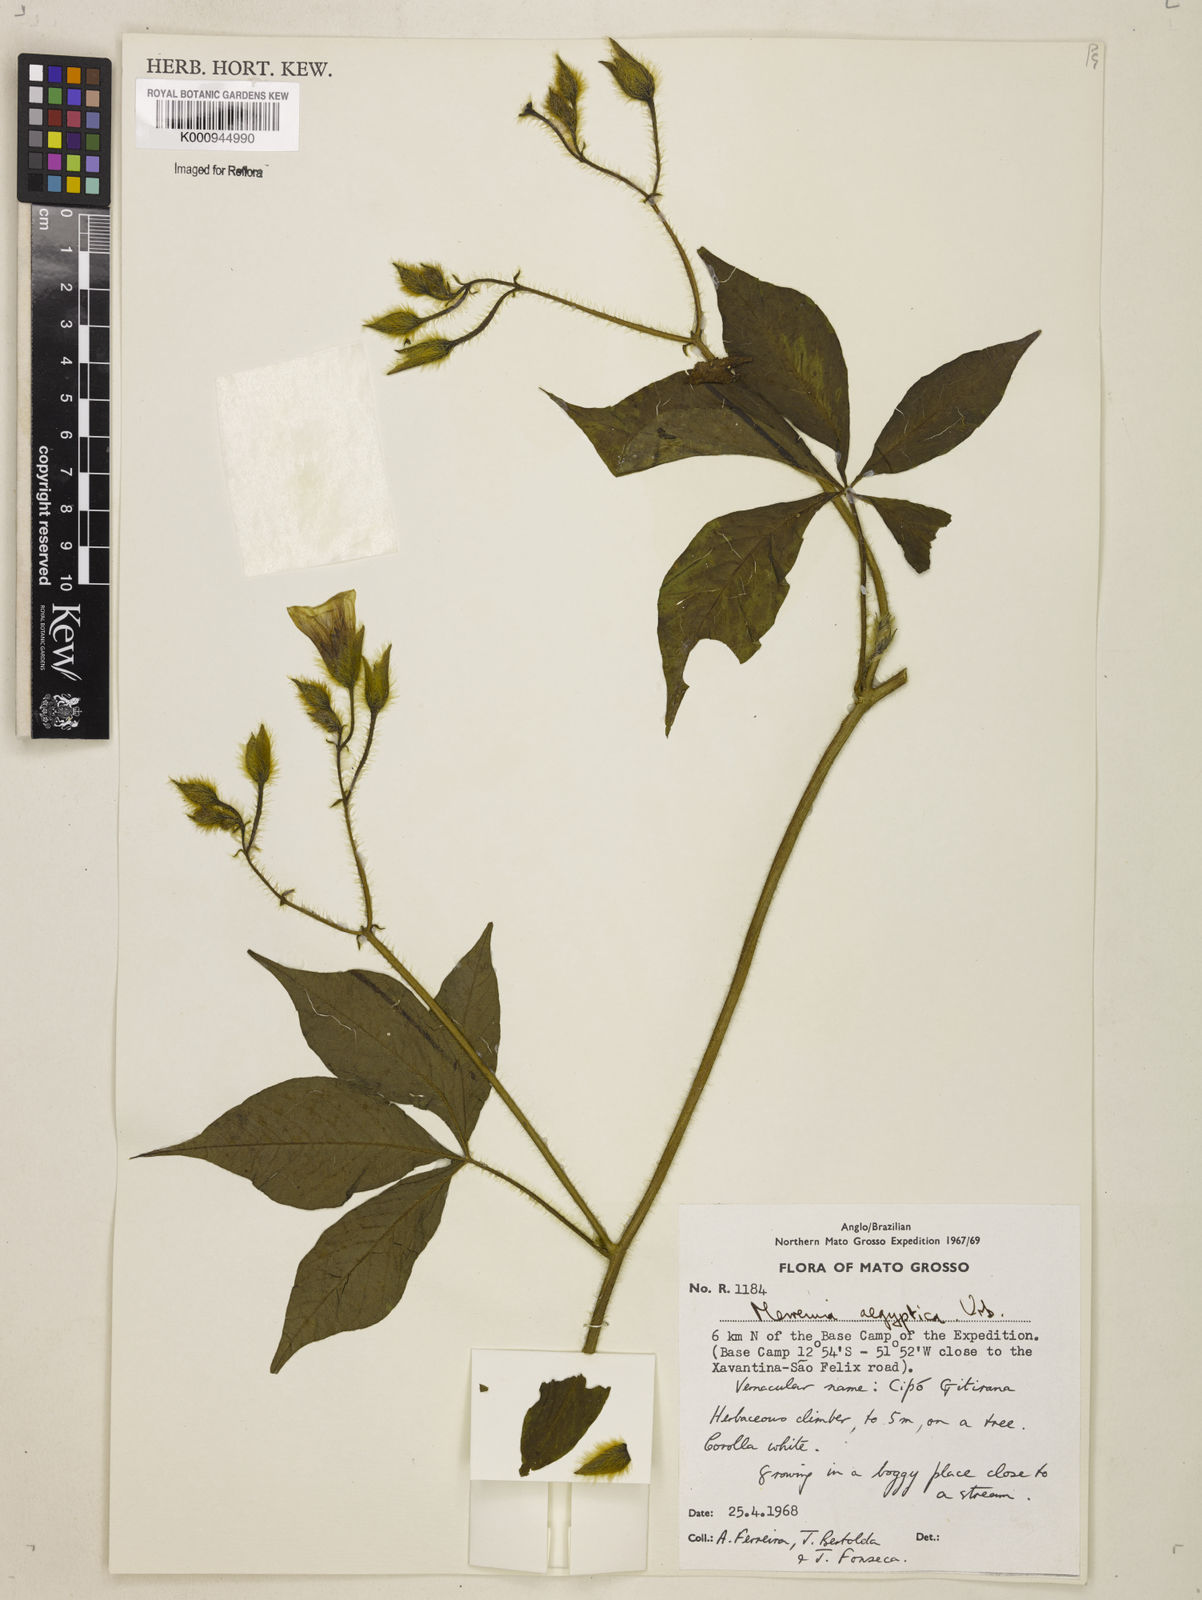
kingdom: Plantae
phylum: Tracheophyta
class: Magnoliopsida
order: Solanales
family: Convolvulaceae
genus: Distimake
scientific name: Distimake aegyptius
